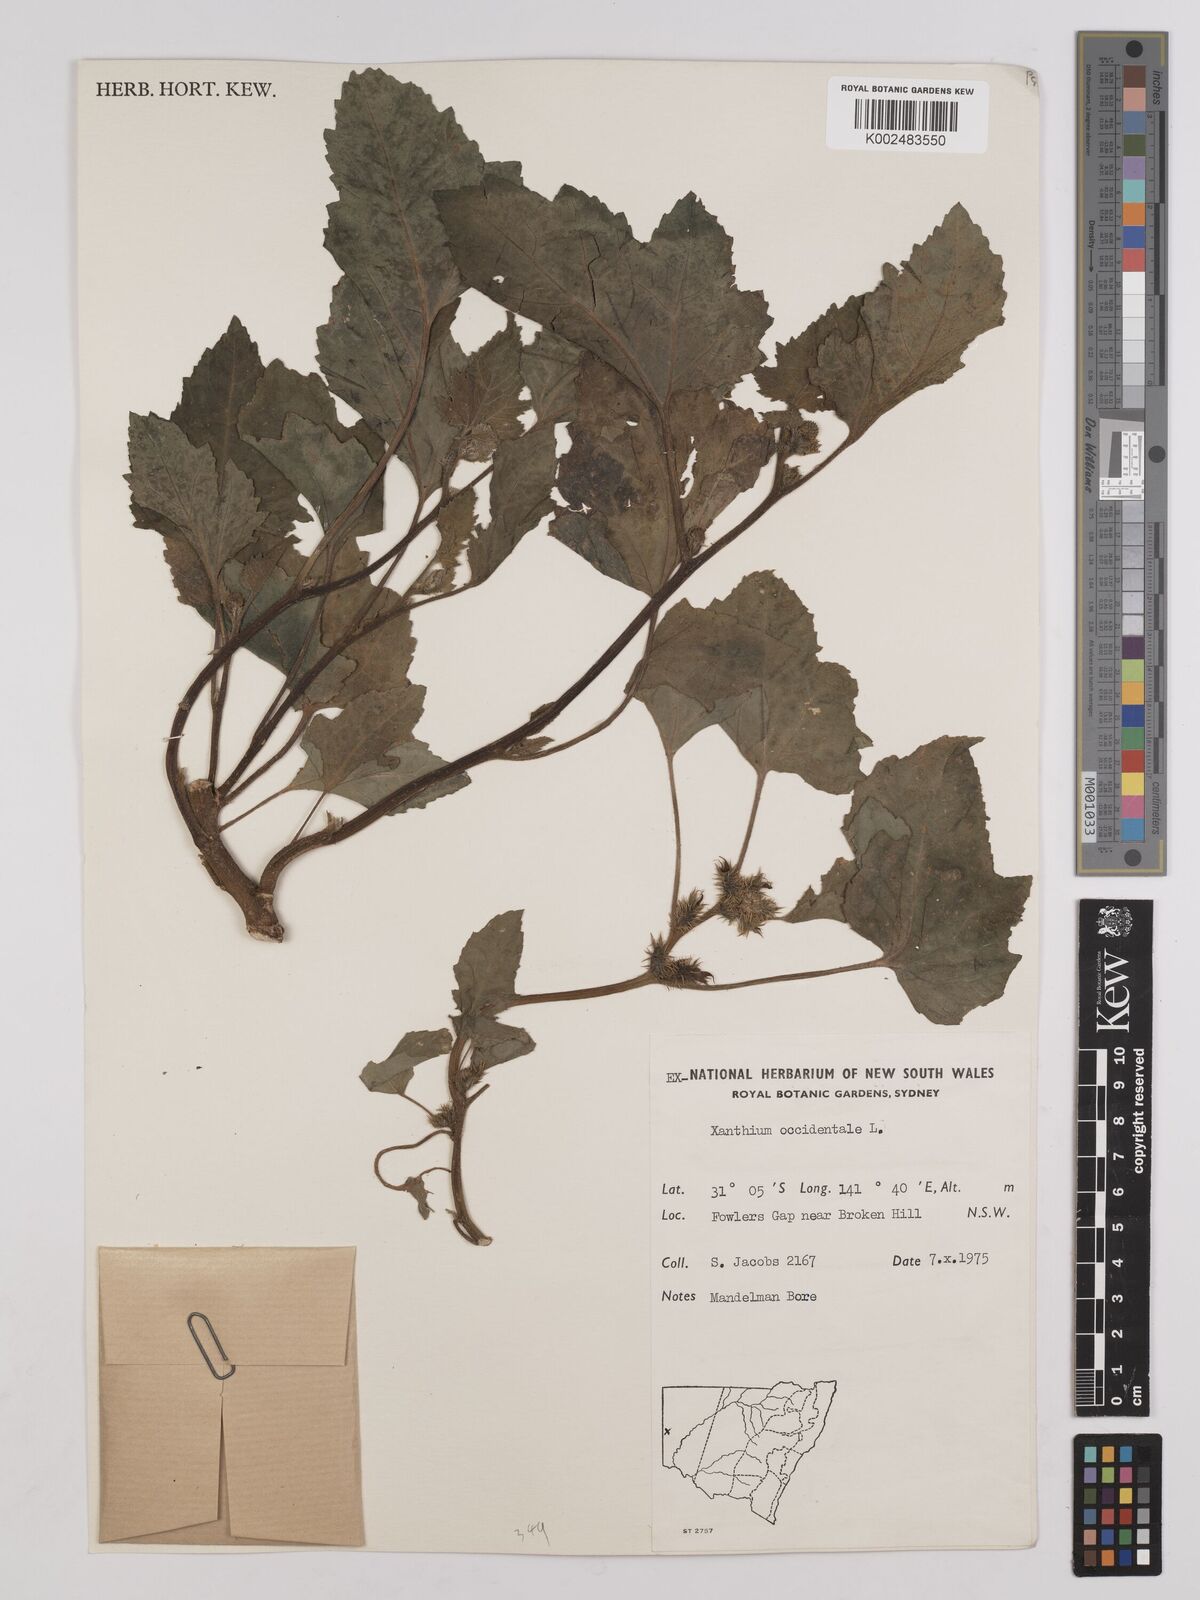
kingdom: Plantae
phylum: Tracheophyta
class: Magnoliopsida
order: Asterales
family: Asteraceae
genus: Xanthium
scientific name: Xanthium occidentale
